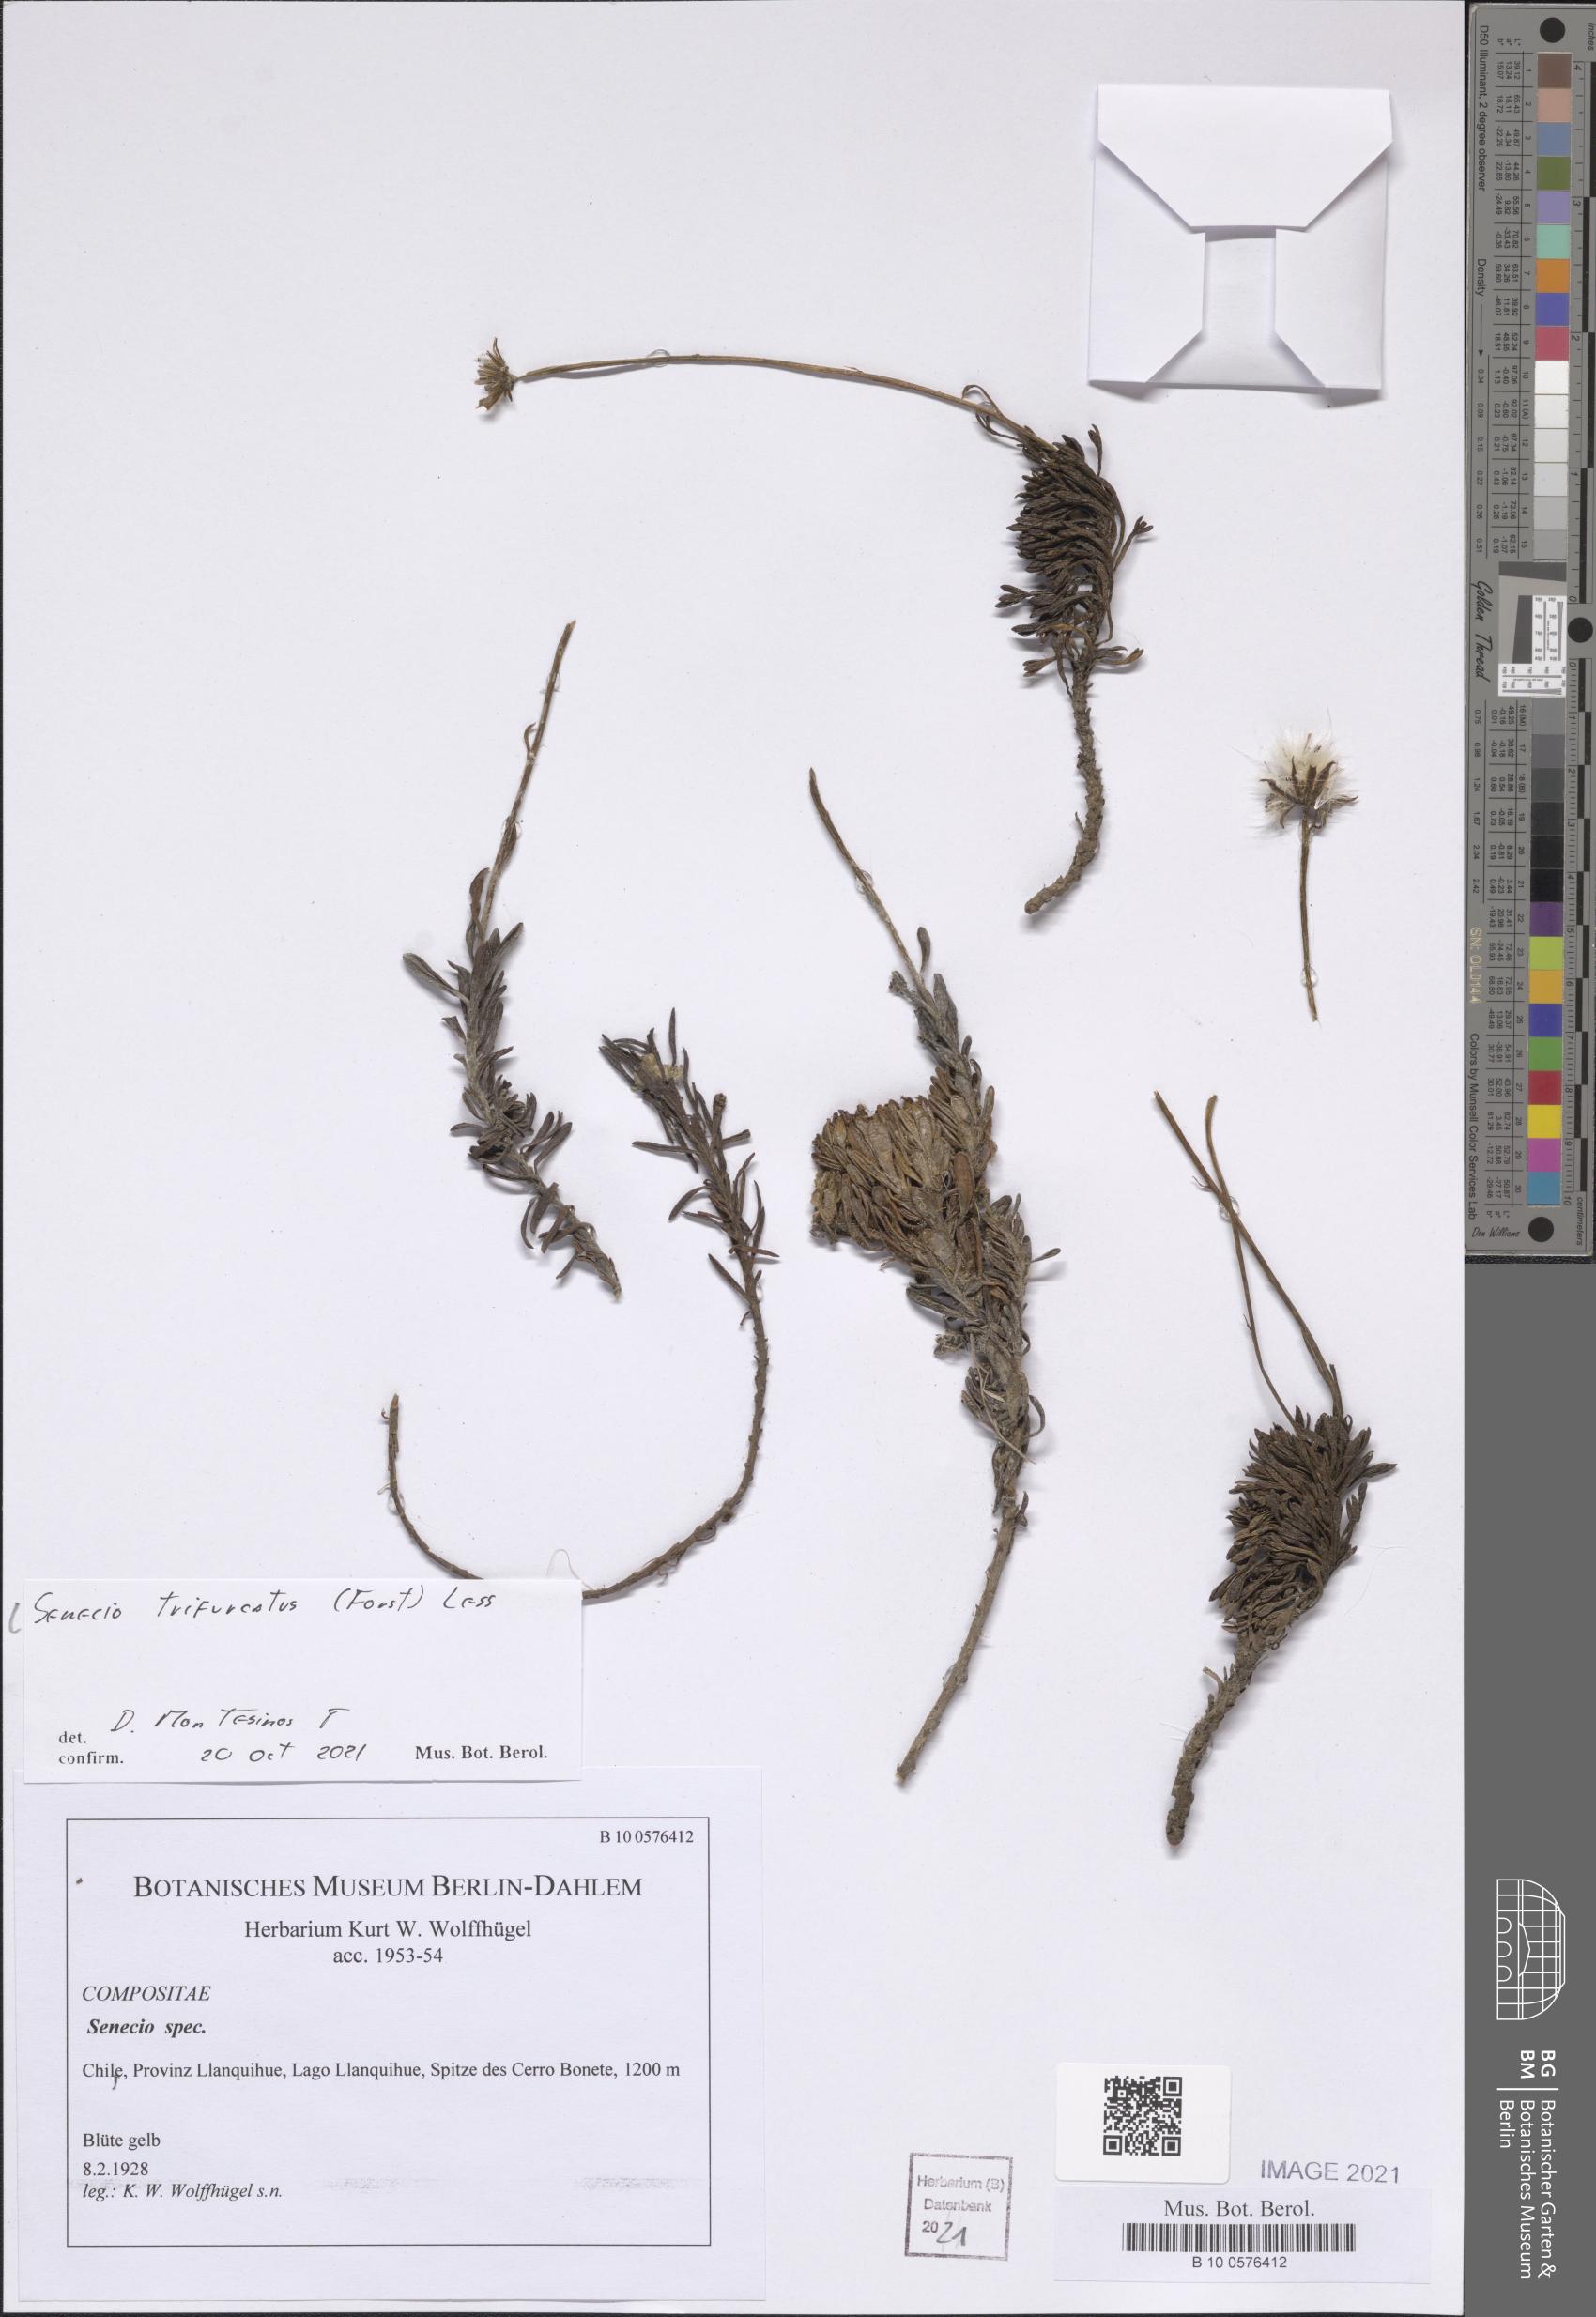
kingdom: Plantae
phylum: Tracheophyta
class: Magnoliopsida
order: Asterales
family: Asteraceae
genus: Haplosticha
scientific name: Haplosticha trifurcata
